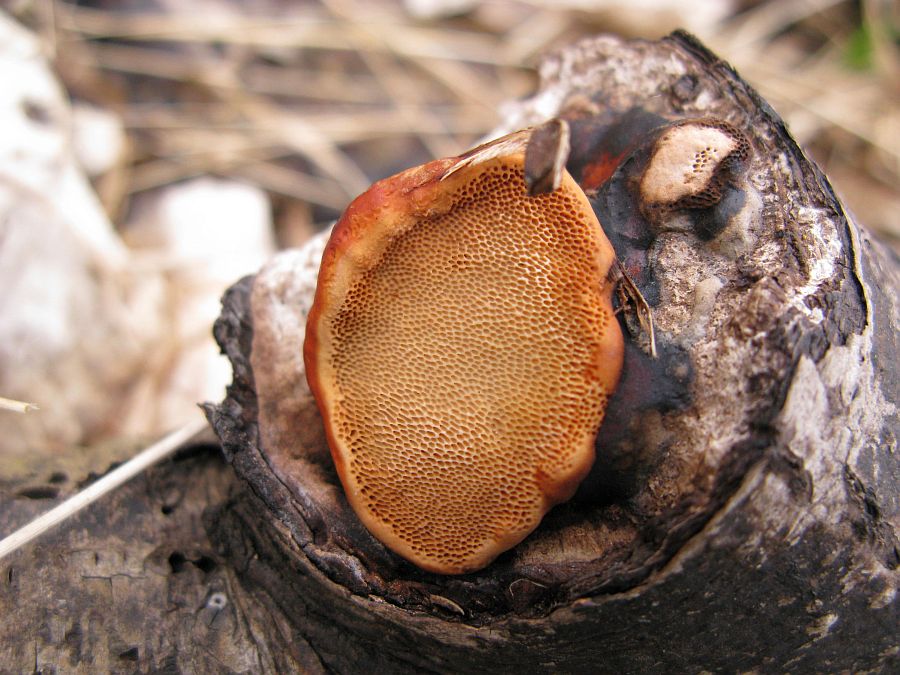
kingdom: Fungi
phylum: Basidiomycota
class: Agaricomycetes
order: Polyporales
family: Fomitopsidaceae
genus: Fomitopsis
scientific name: Fomitopsis pinicola
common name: randbæltet hovporesvamp
